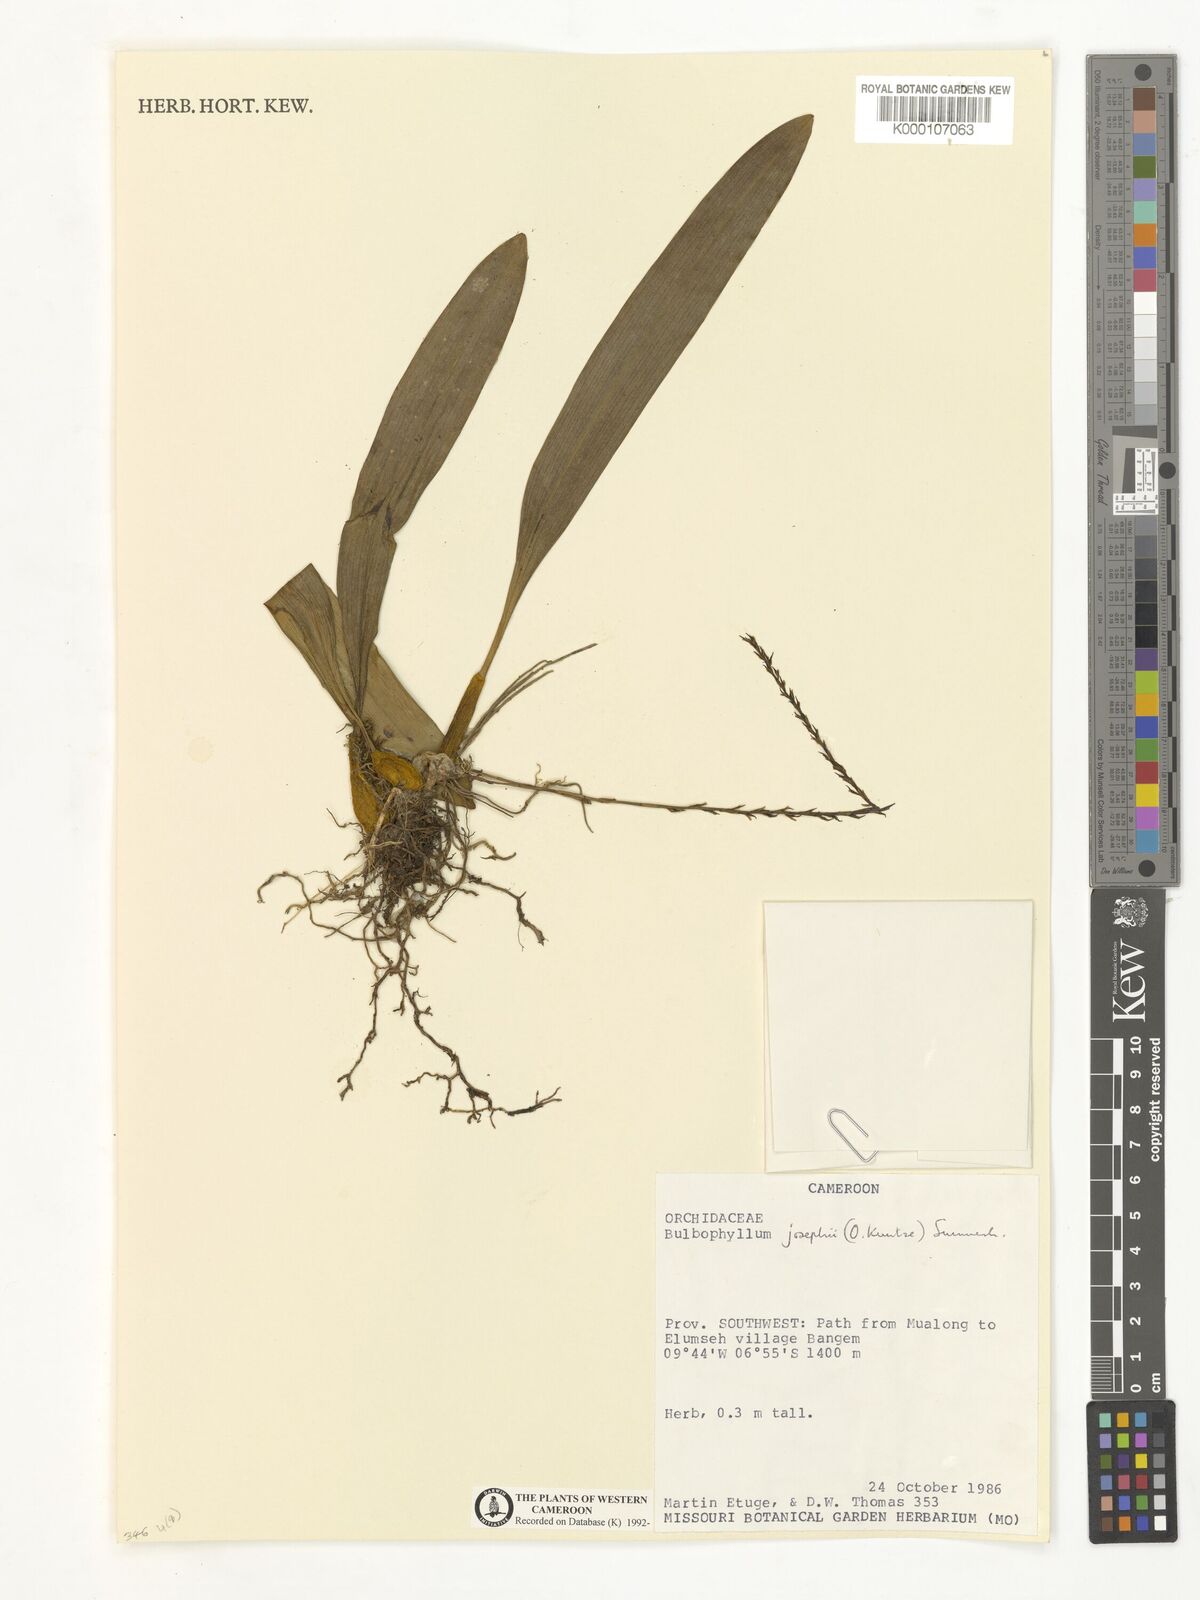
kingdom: Plantae
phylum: Tracheophyta
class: Liliopsida
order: Asparagales
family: Orchidaceae
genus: Bulbophyllum
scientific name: Bulbophyllum josephi
